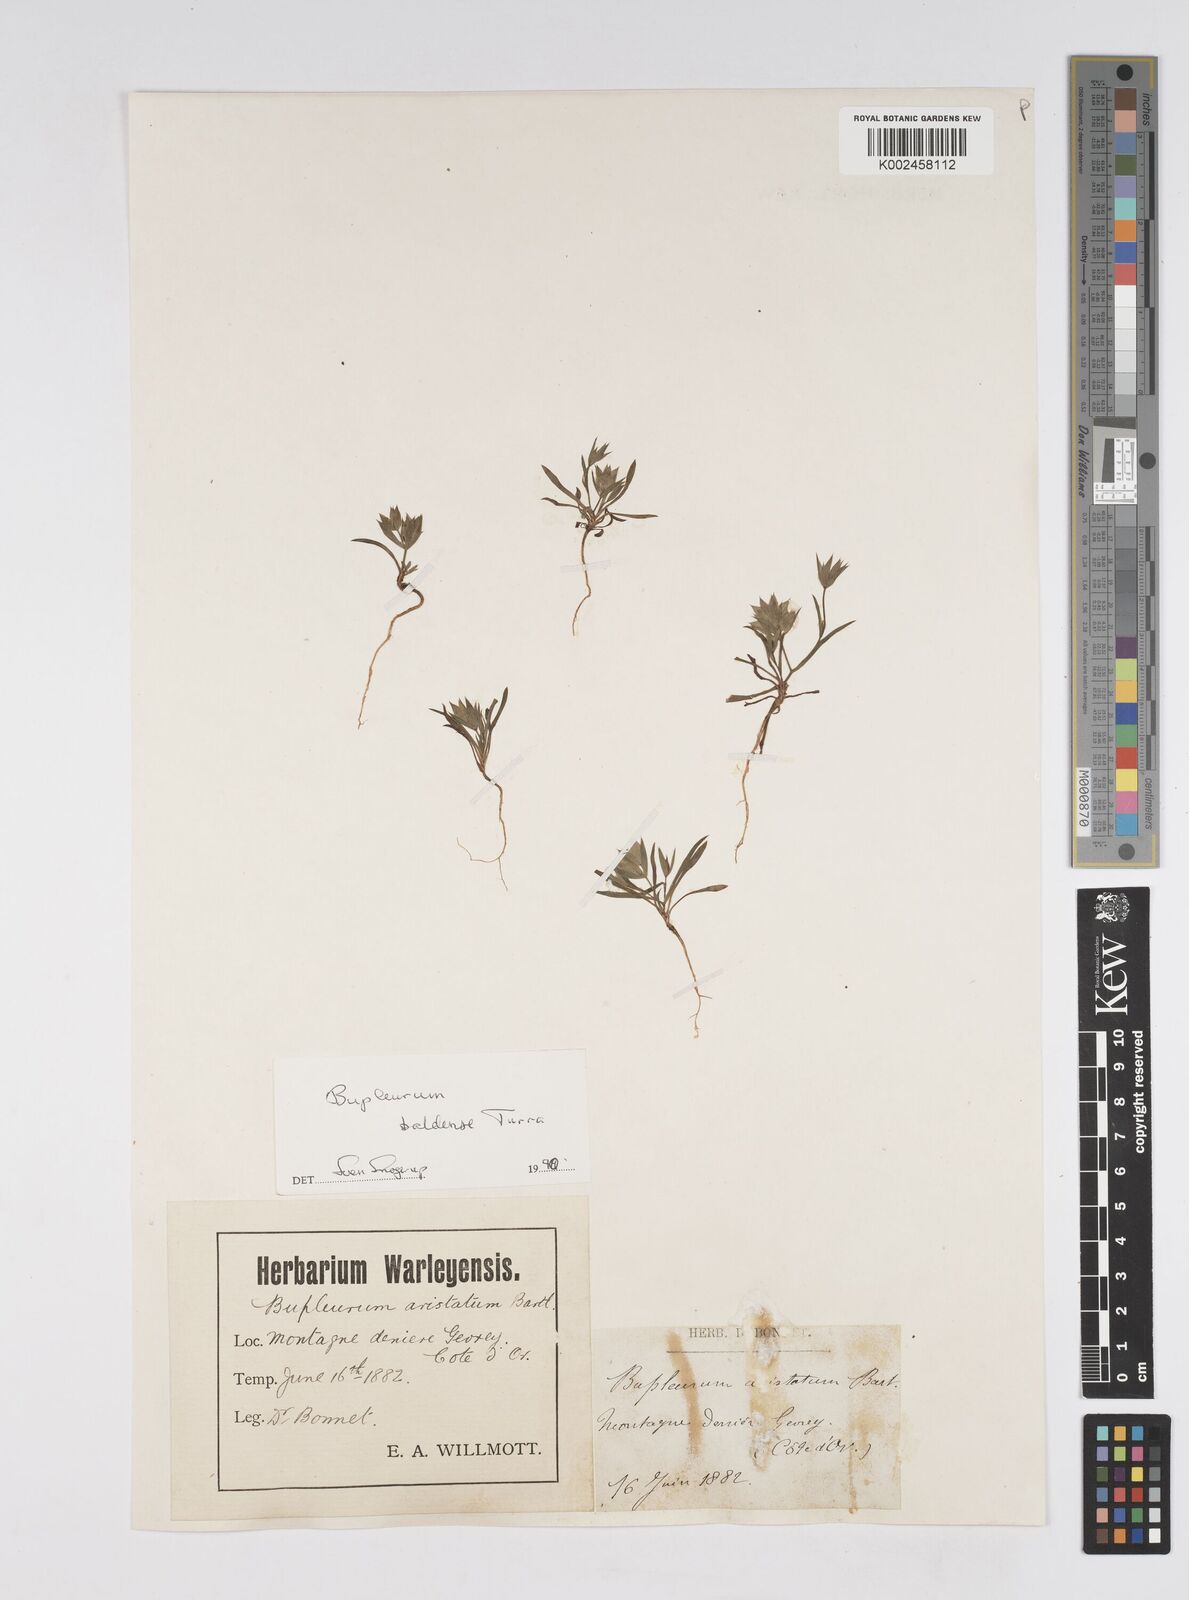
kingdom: Plantae
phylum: Tracheophyta
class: Magnoliopsida
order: Apiales
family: Apiaceae
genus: Bupleurum
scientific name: Bupleurum baldense
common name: Small hare's-ear
